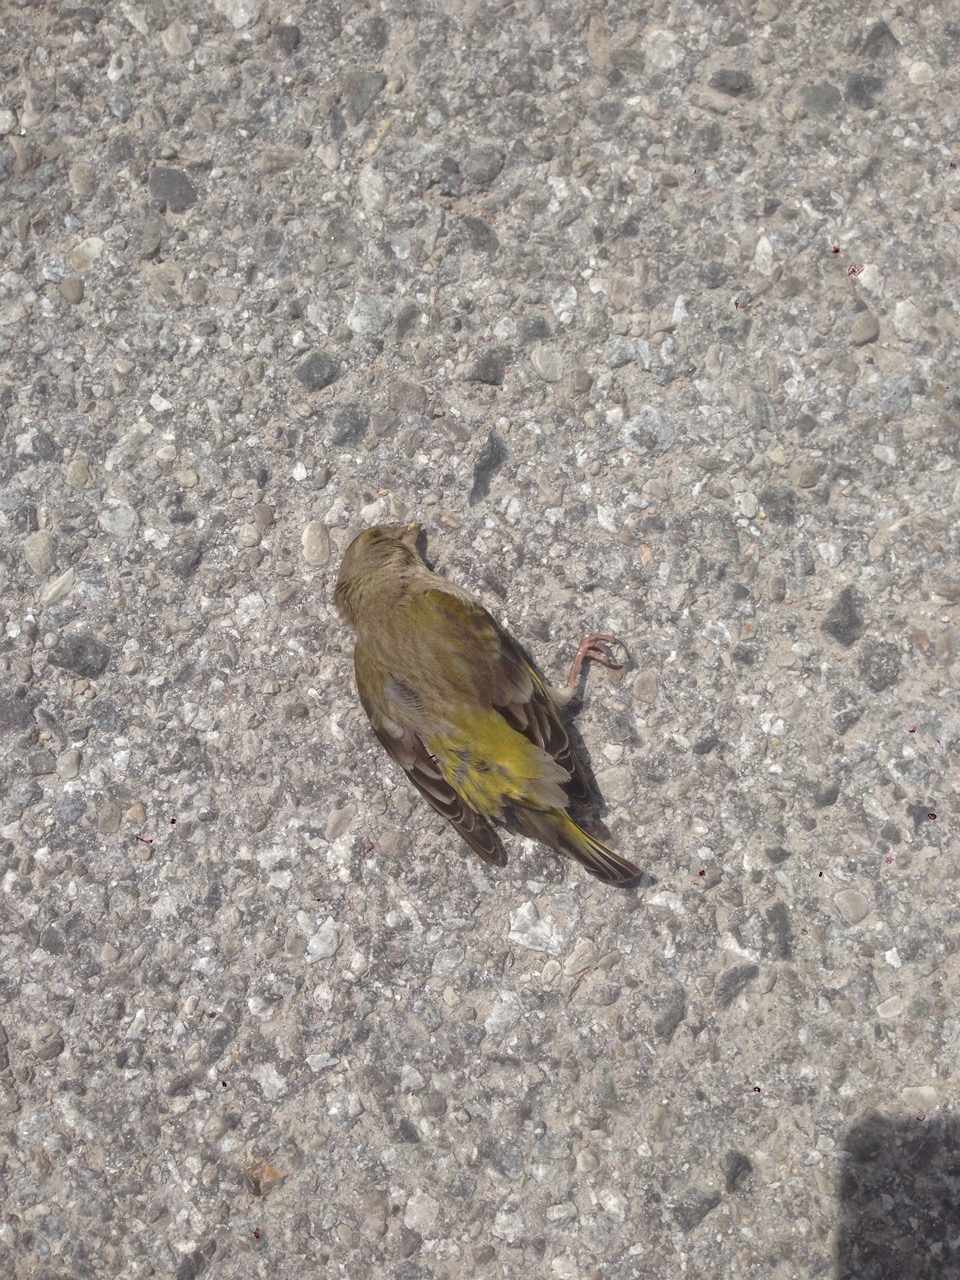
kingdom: Plantae
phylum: Tracheophyta
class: Liliopsida
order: Poales
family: Poaceae
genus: Chloris
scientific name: Chloris chloris
